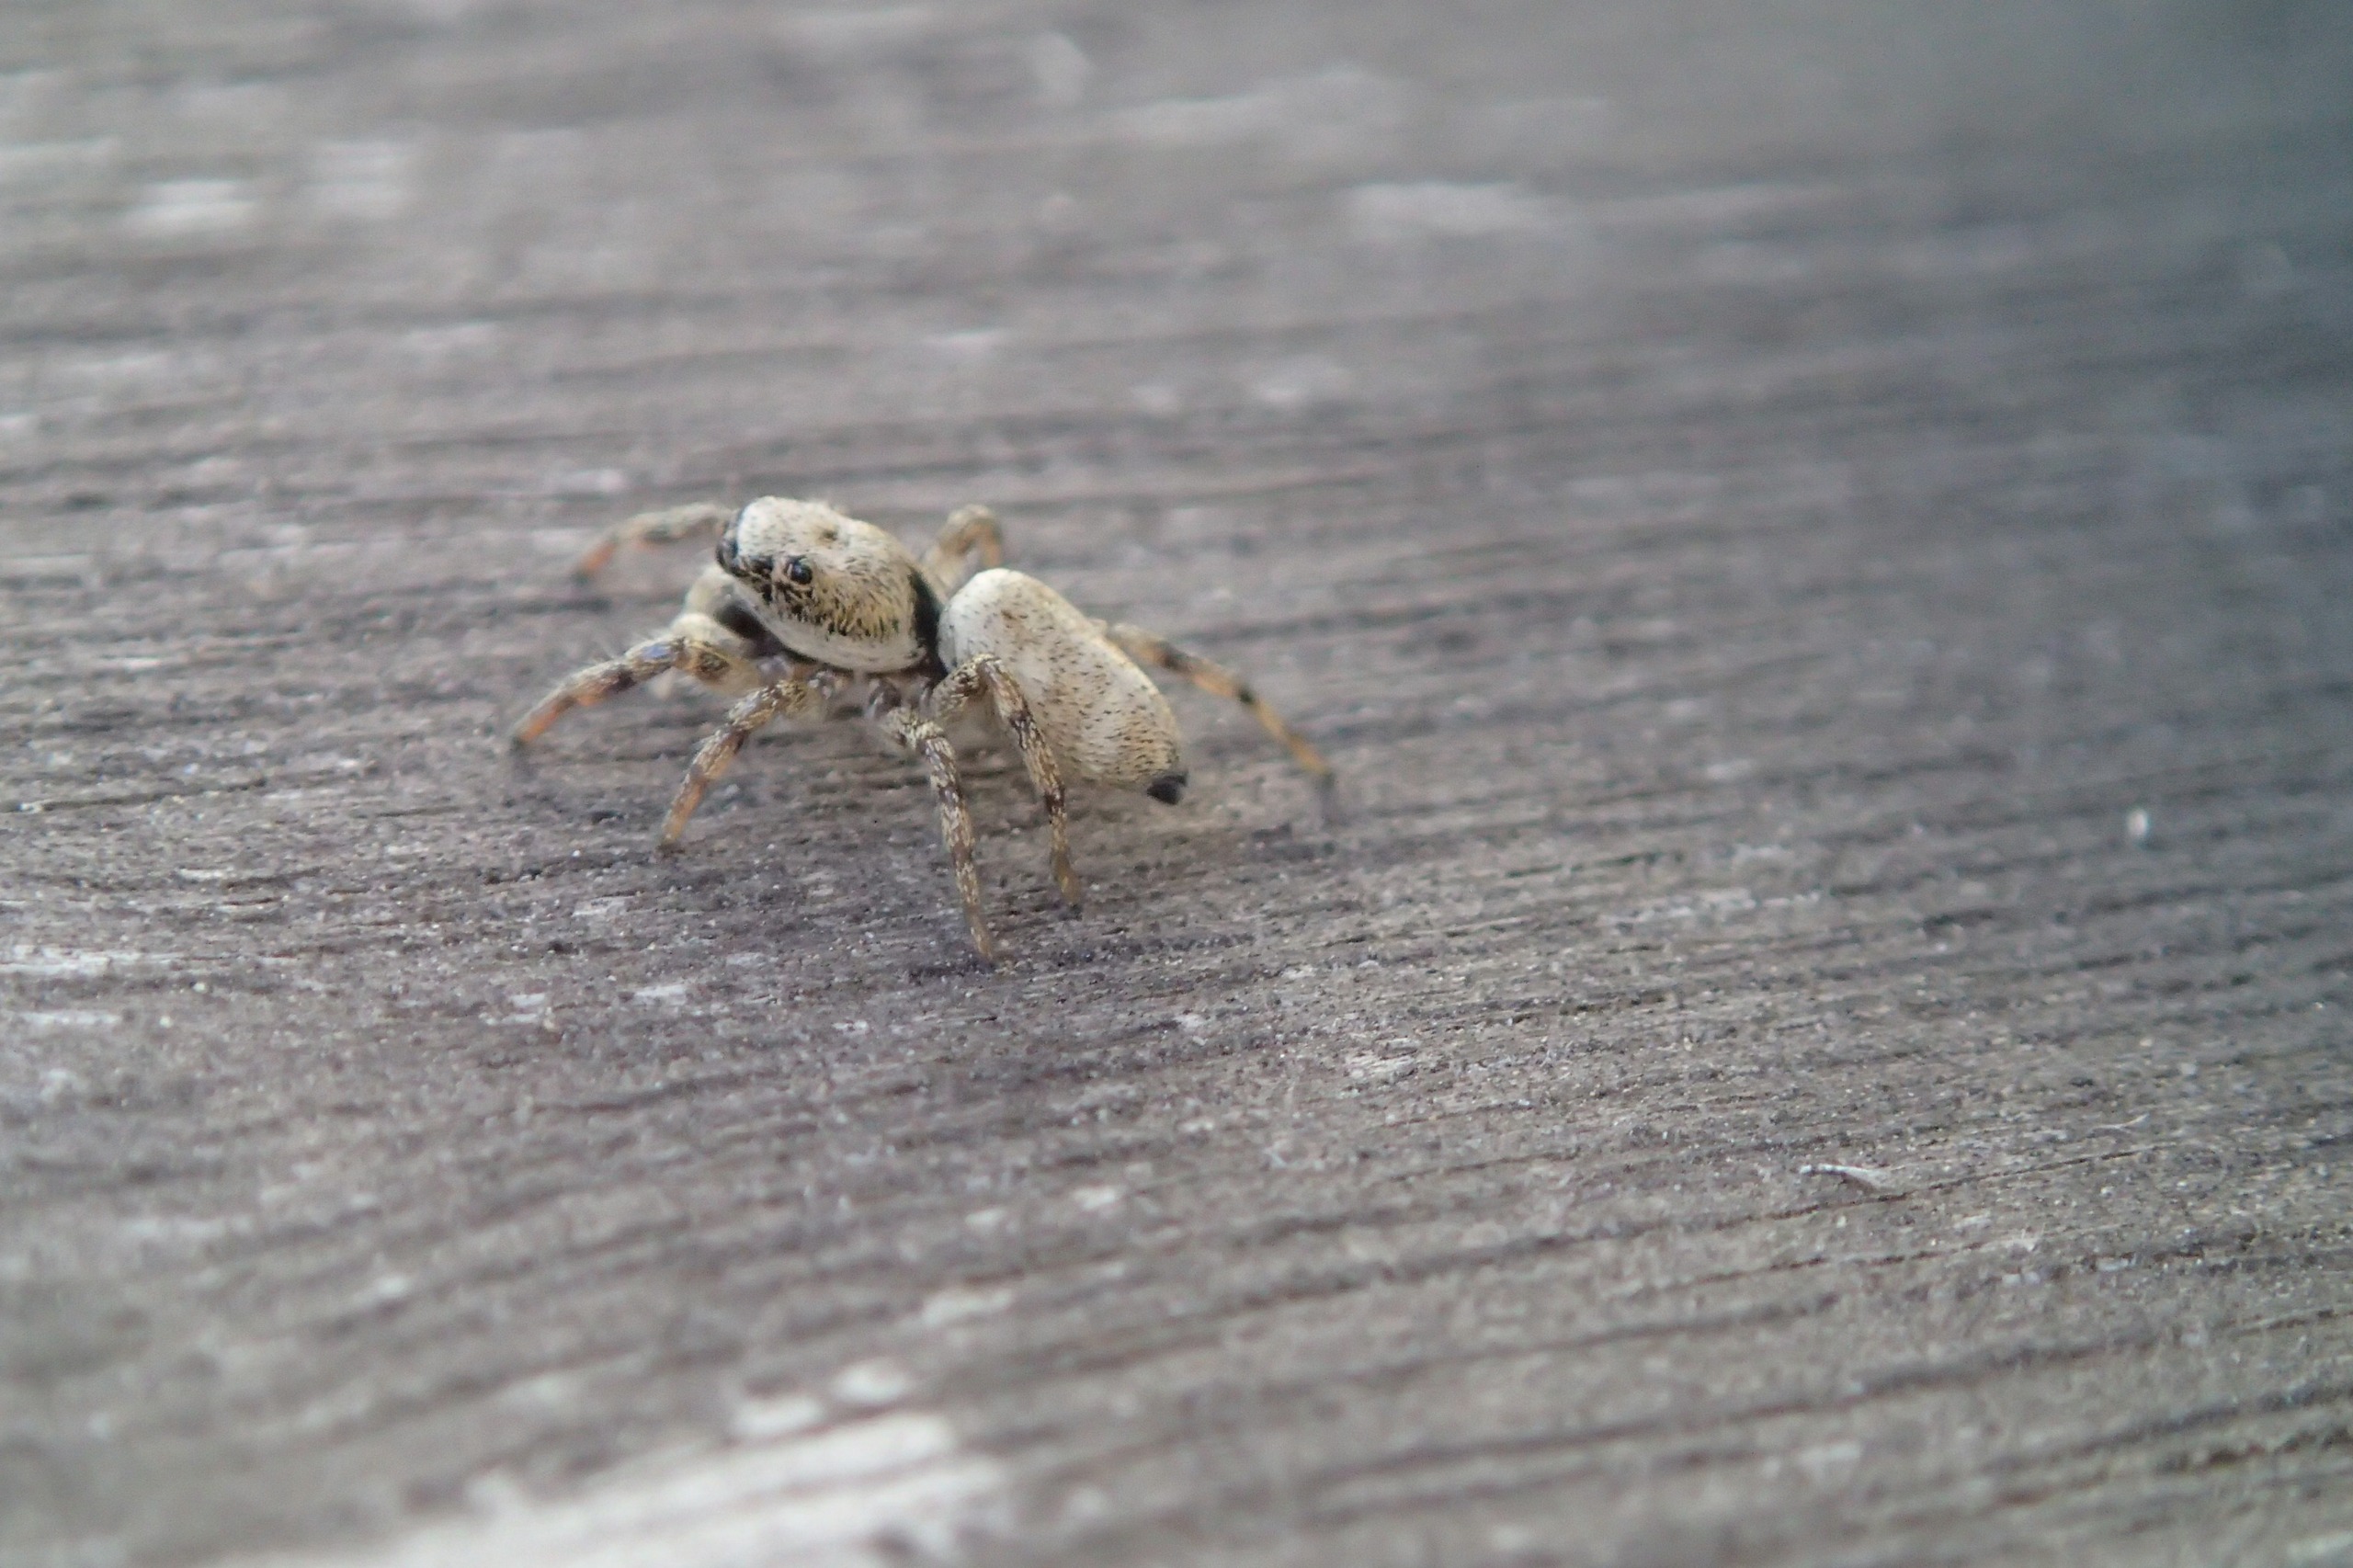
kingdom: Animalia
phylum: Arthropoda
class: Arachnida
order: Araneae
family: Salticidae
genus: Salticus
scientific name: Salticus scenicus
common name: Almindelig zebraedderkop
